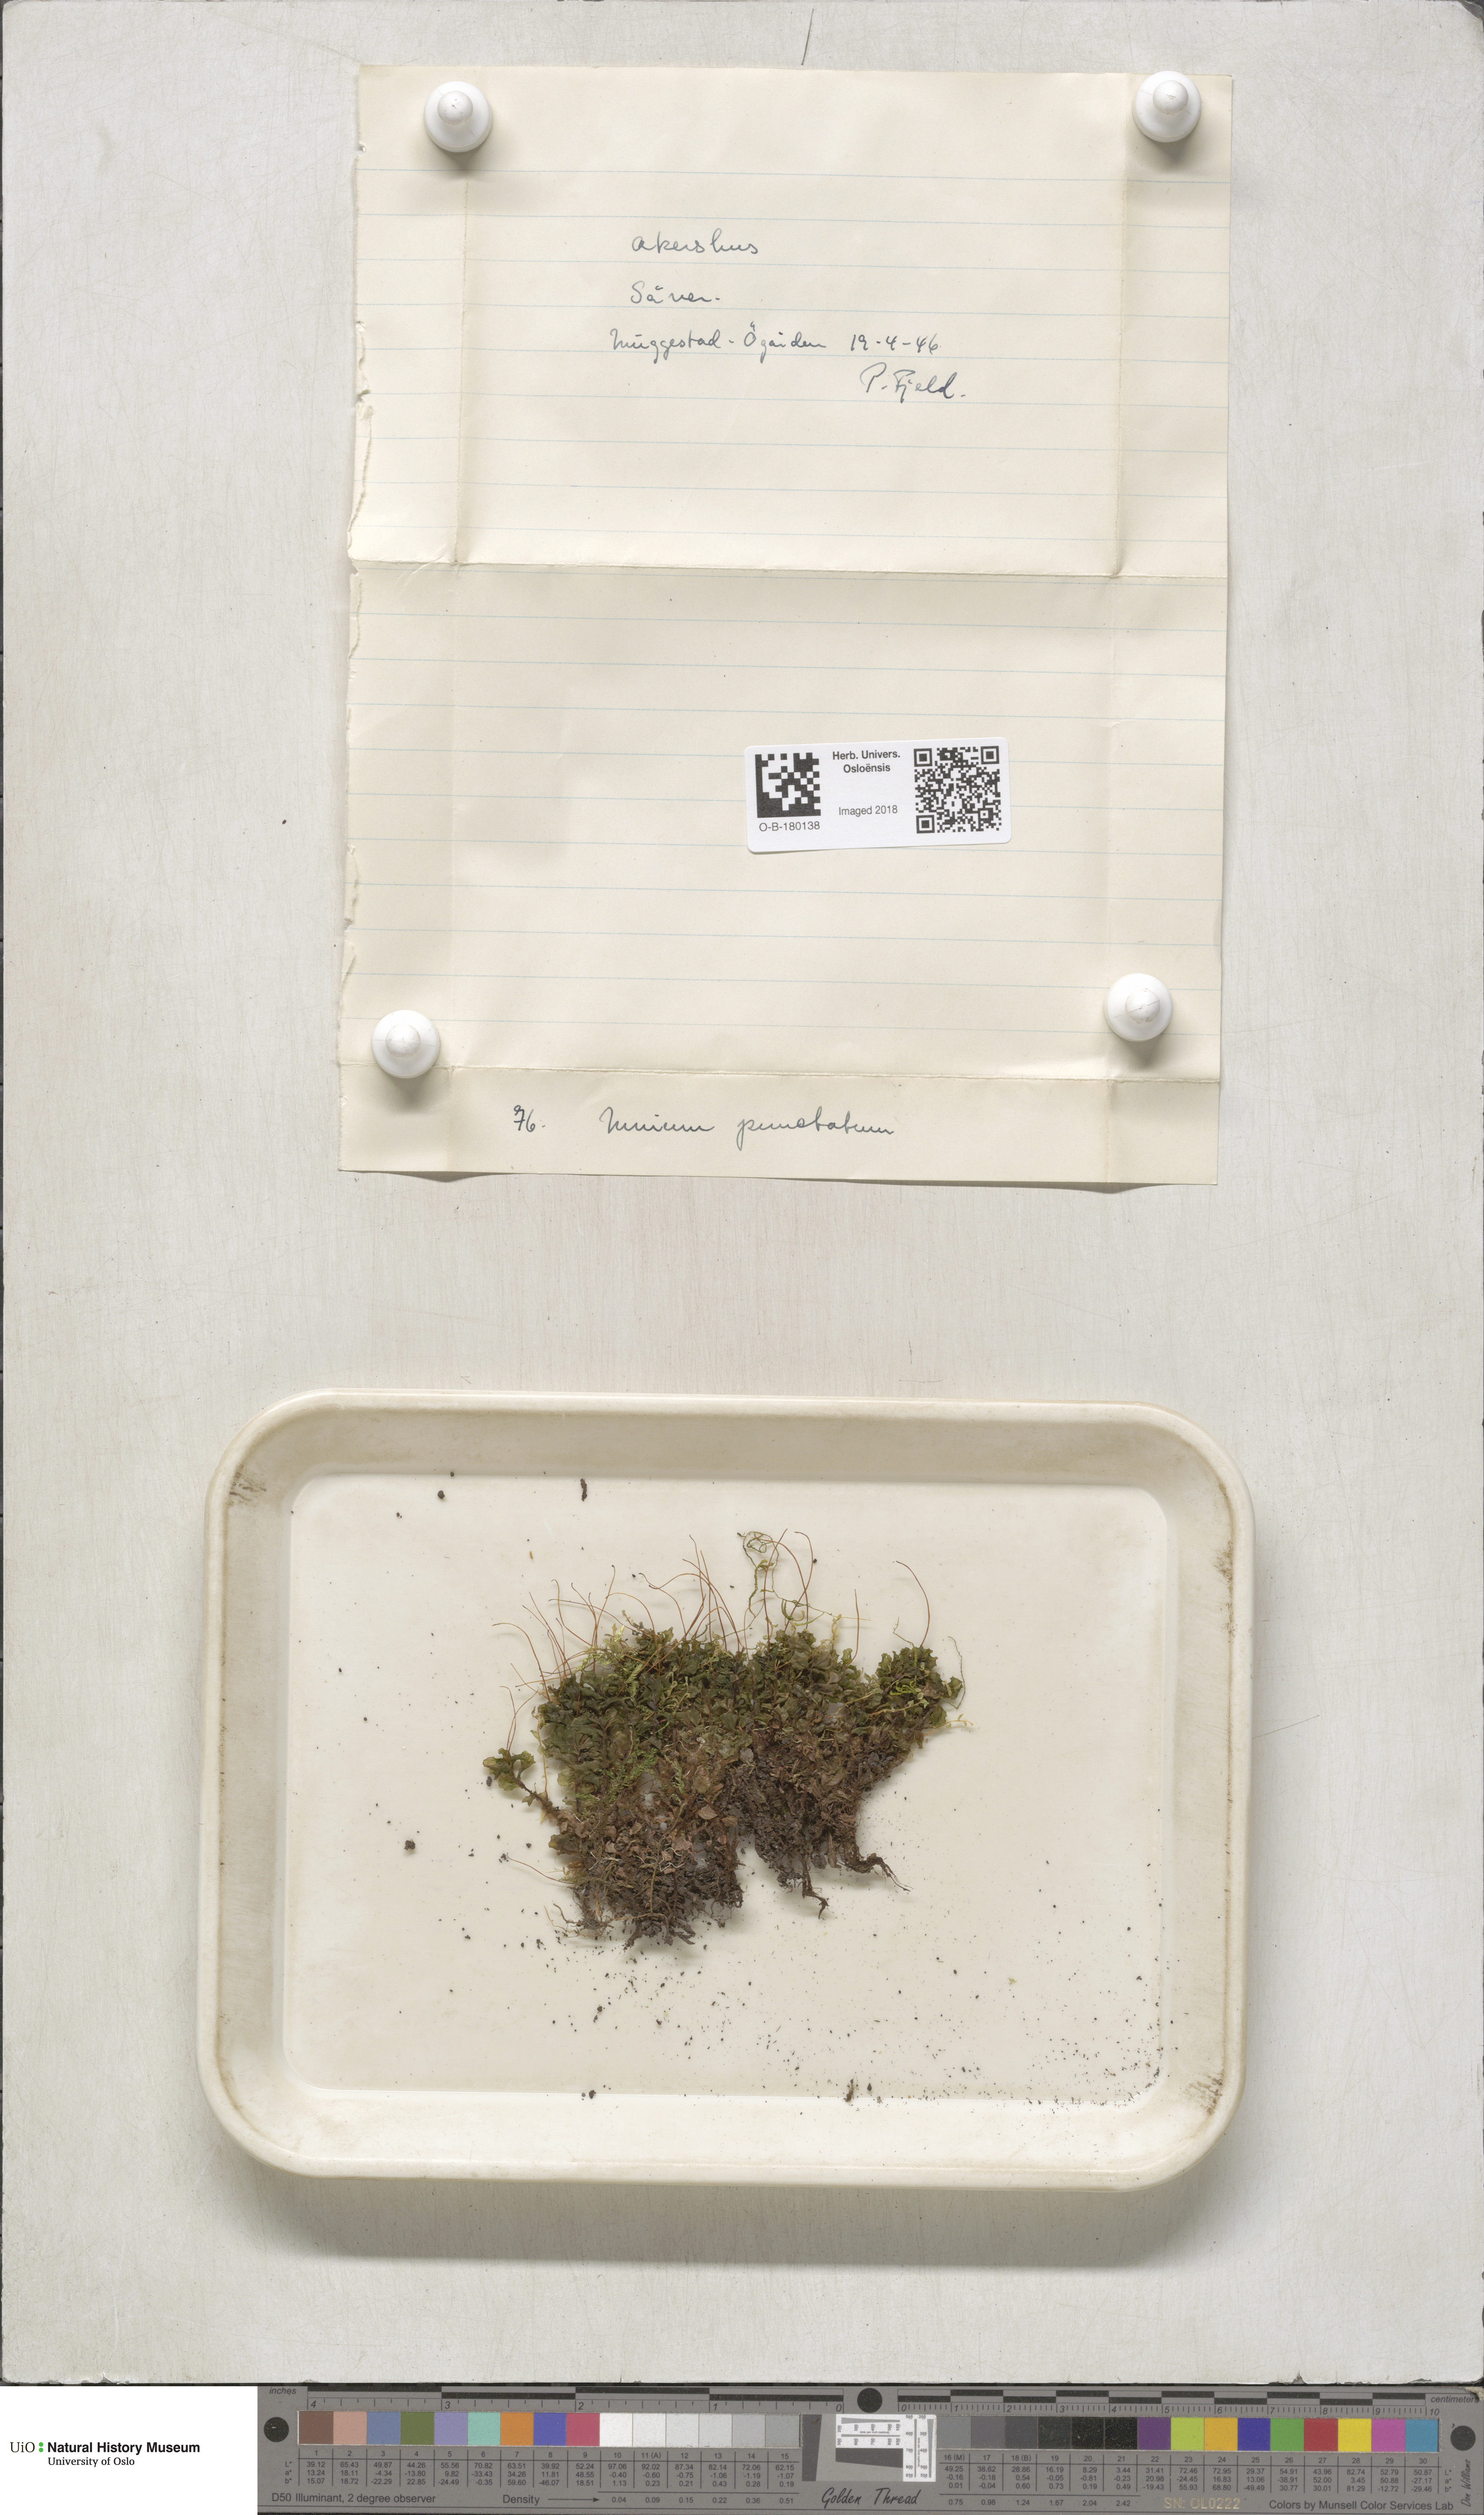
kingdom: Plantae
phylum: Bryophyta
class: Bryopsida
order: Bryales
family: Mniaceae
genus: Rhizomnium
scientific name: Rhizomnium punctatum
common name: Dotted leafy moss
